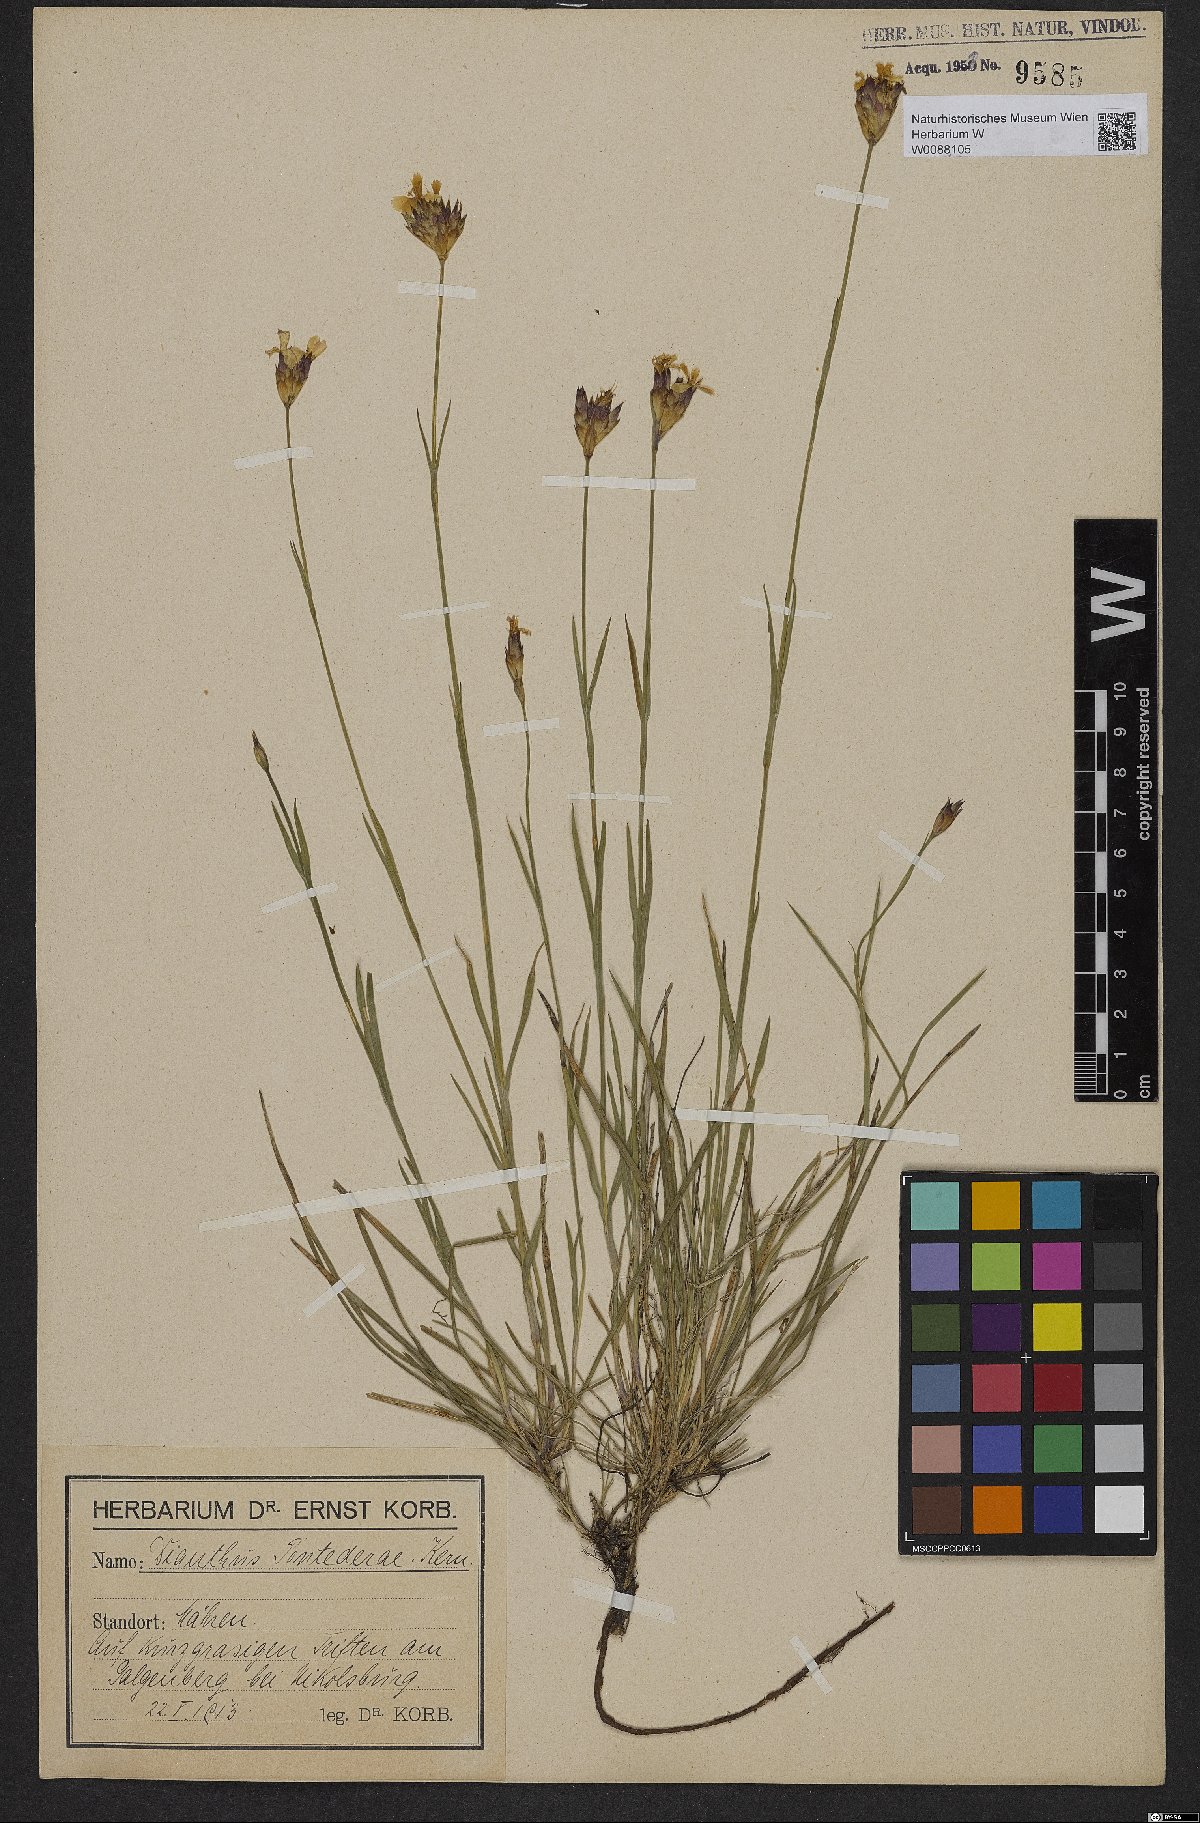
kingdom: Plantae
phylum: Tracheophyta
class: Magnoliopsida
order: Caryophyllales
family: Caryophyllaceae
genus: Dianthus
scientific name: Dianthus pontederae
